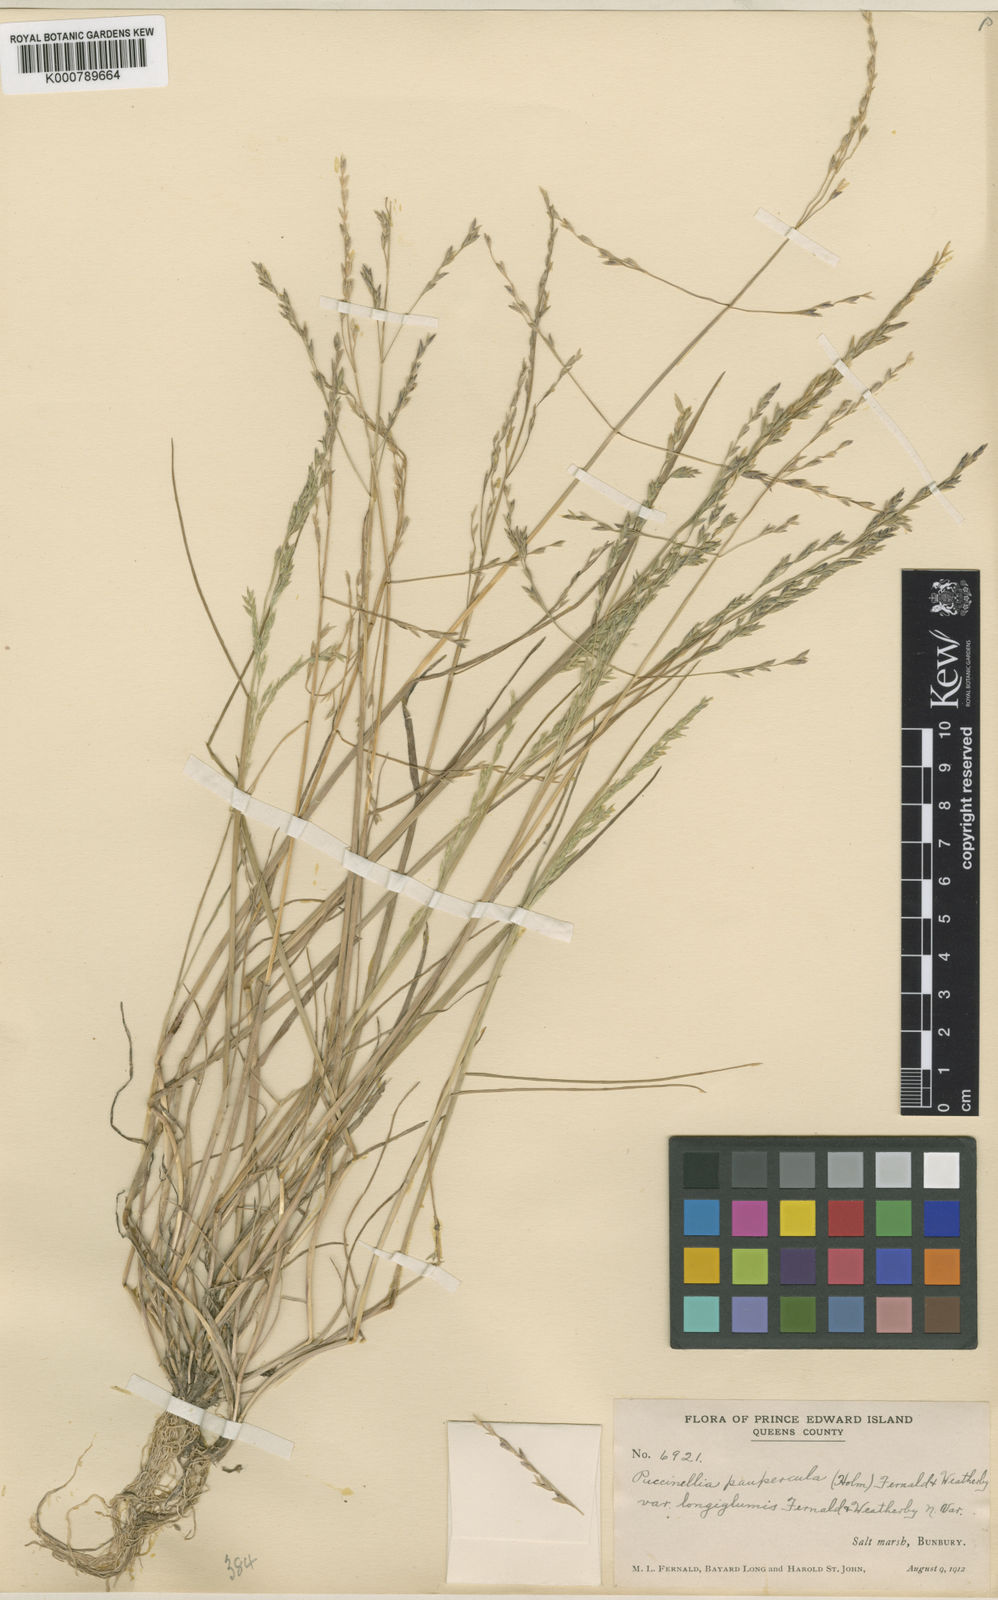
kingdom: Plantae
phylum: Tracheophyta
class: Liliopsida
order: Poales
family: Poaceae
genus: Puccinellia
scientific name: Puccinellia pumila
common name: Dwarf alkaligrass
